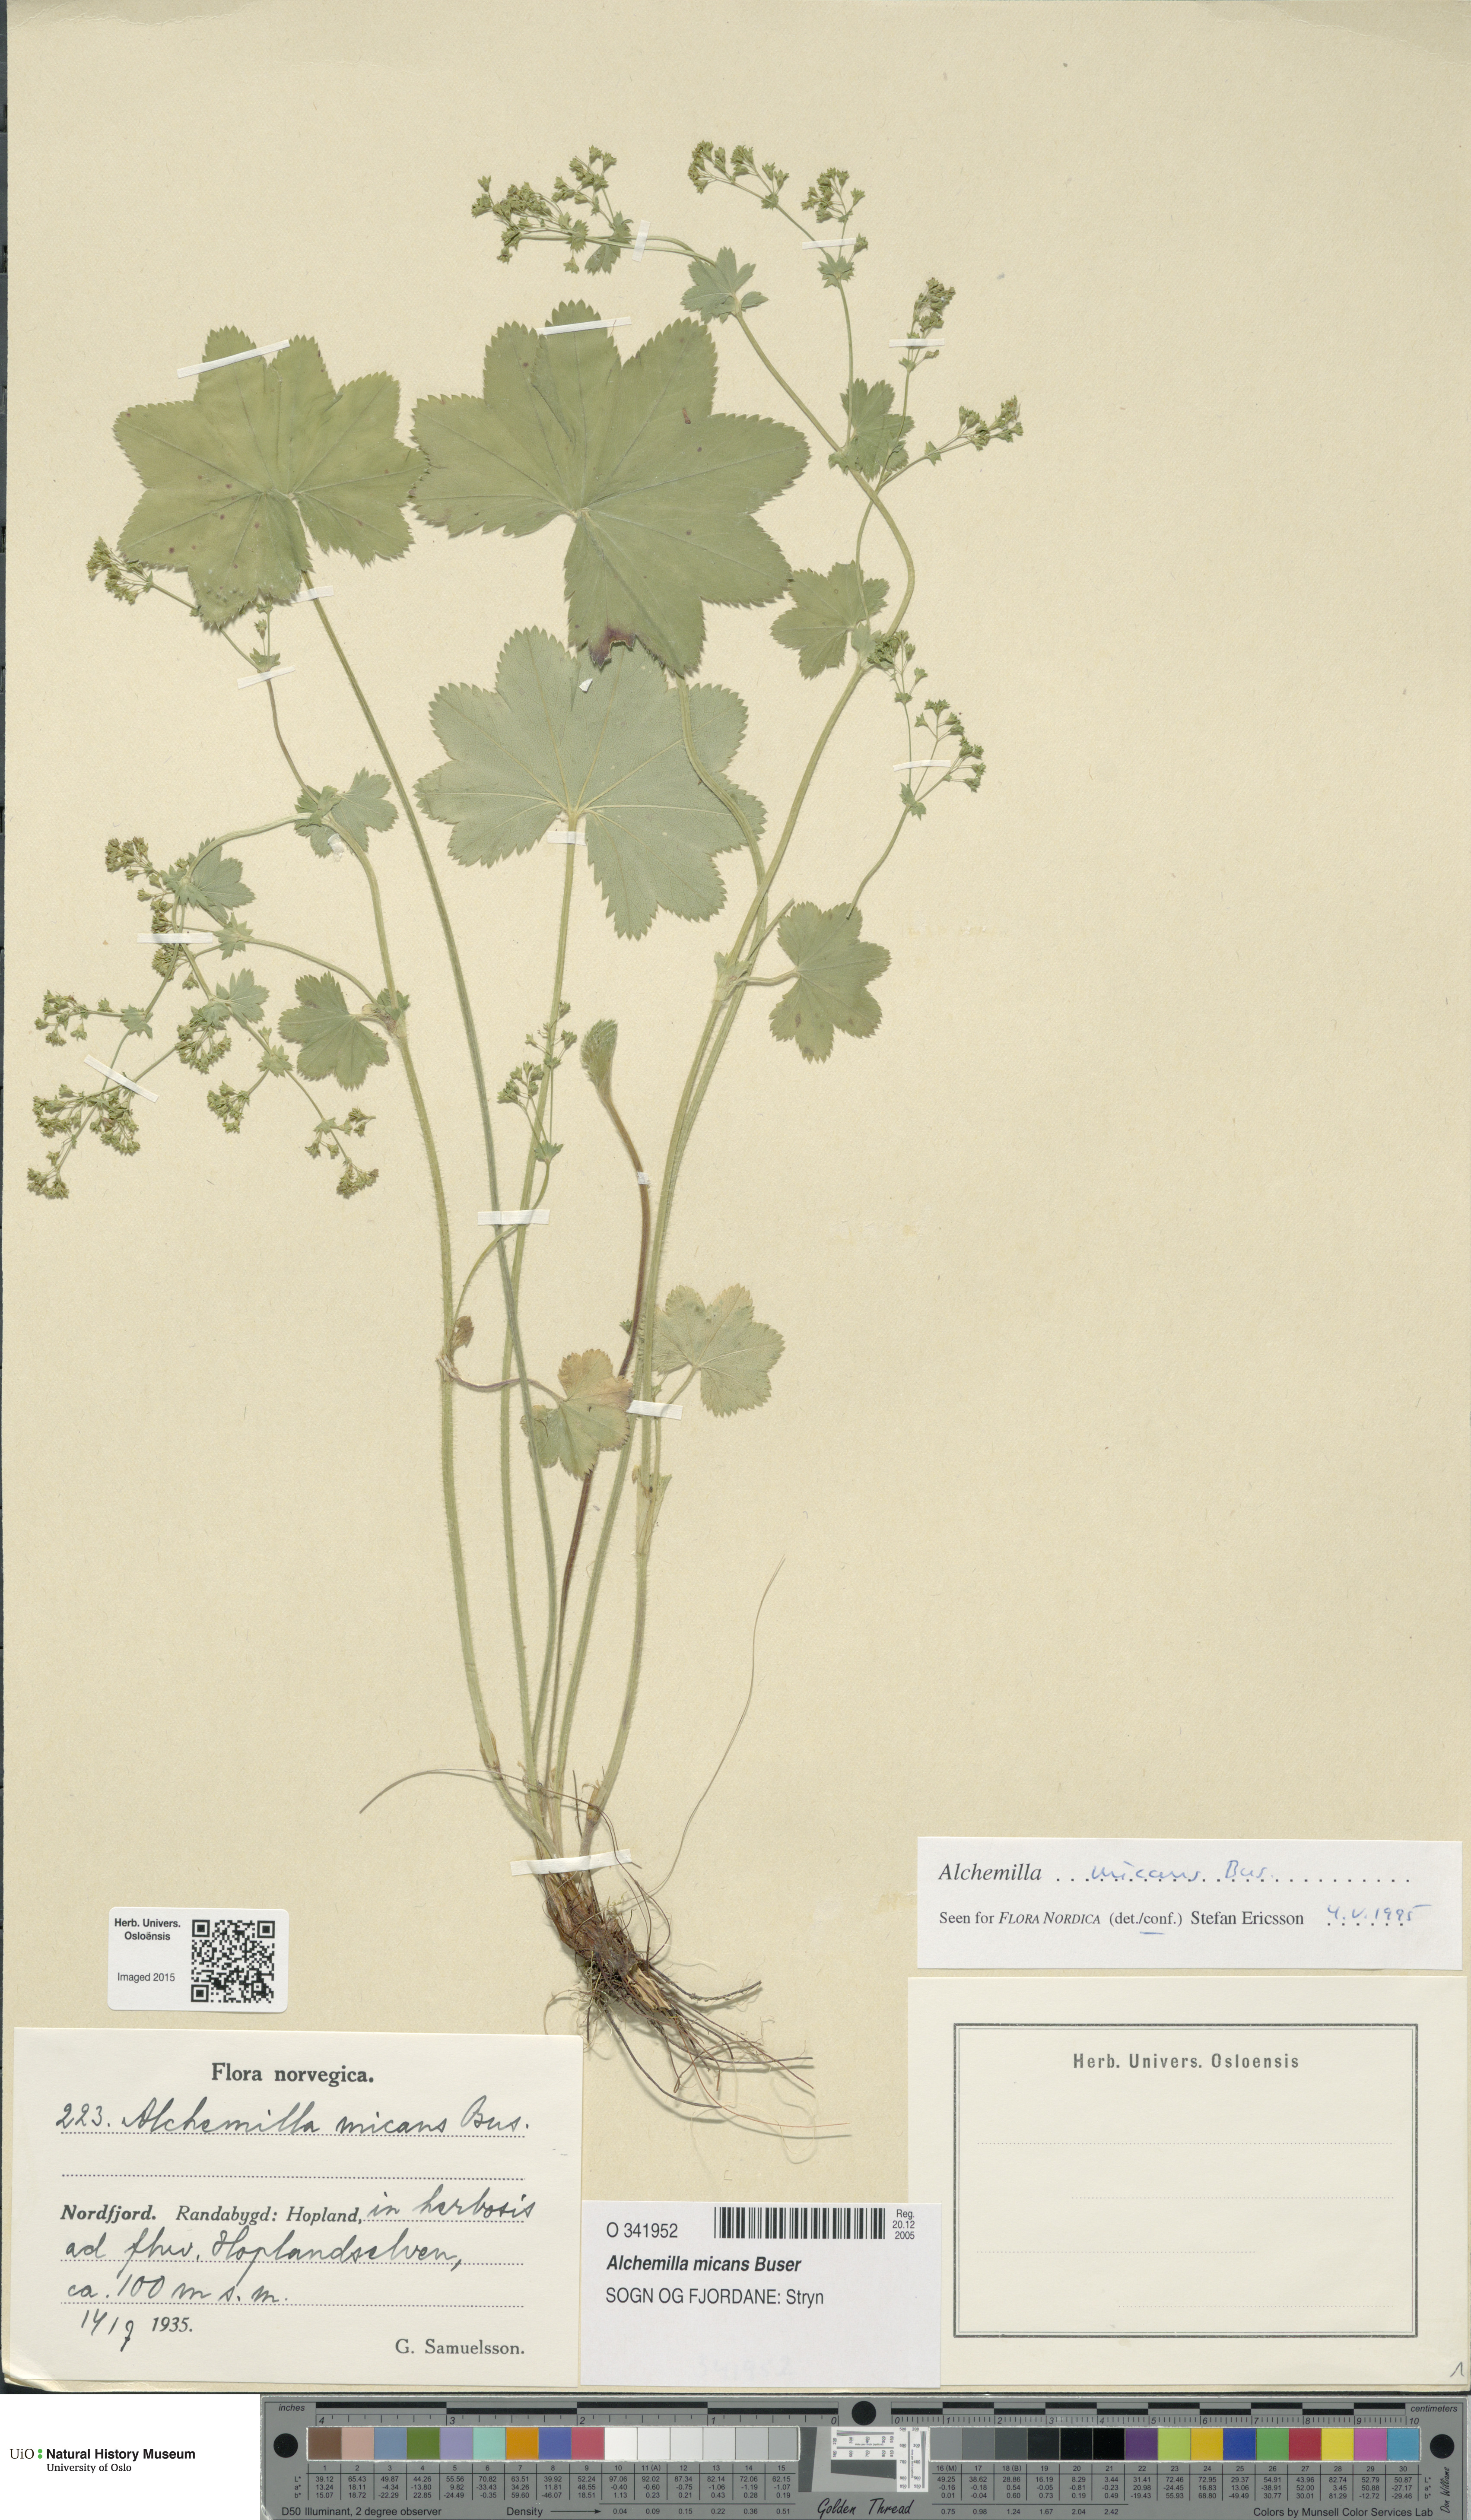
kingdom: Plantae
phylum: Tracheophyta
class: Magnoliopsida
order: Rosales
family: Rosaceae
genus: Alchemilla
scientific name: Alchemilla micans
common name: Gleaming lady's mantle
